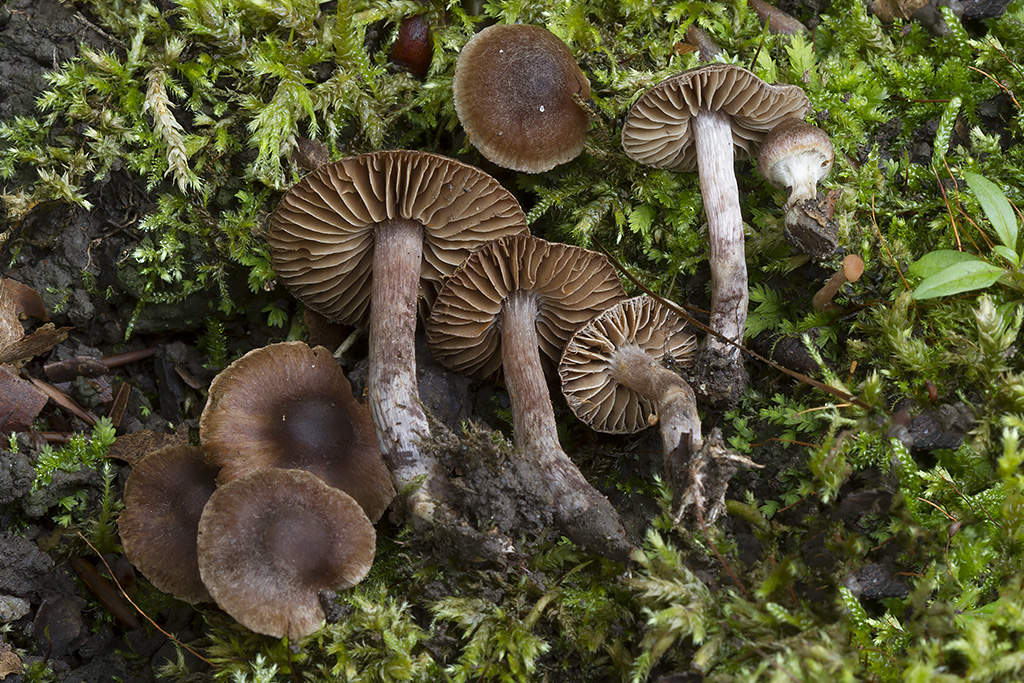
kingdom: Fungi
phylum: Basidiomycota
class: Agaricomycetes
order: Agaricales
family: Cortinariaceae
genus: Cortinarius
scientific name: Cortinarius caliginosus
